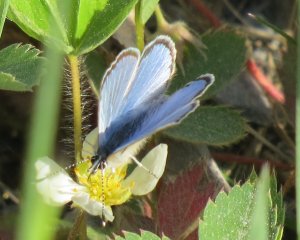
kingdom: Animalia
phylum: Arthropoda
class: Insecta
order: Lepidoptera
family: Lycaenidae
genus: Glaucopsyche
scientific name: Glaucopsyche lygdamus
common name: Silvery Blue
